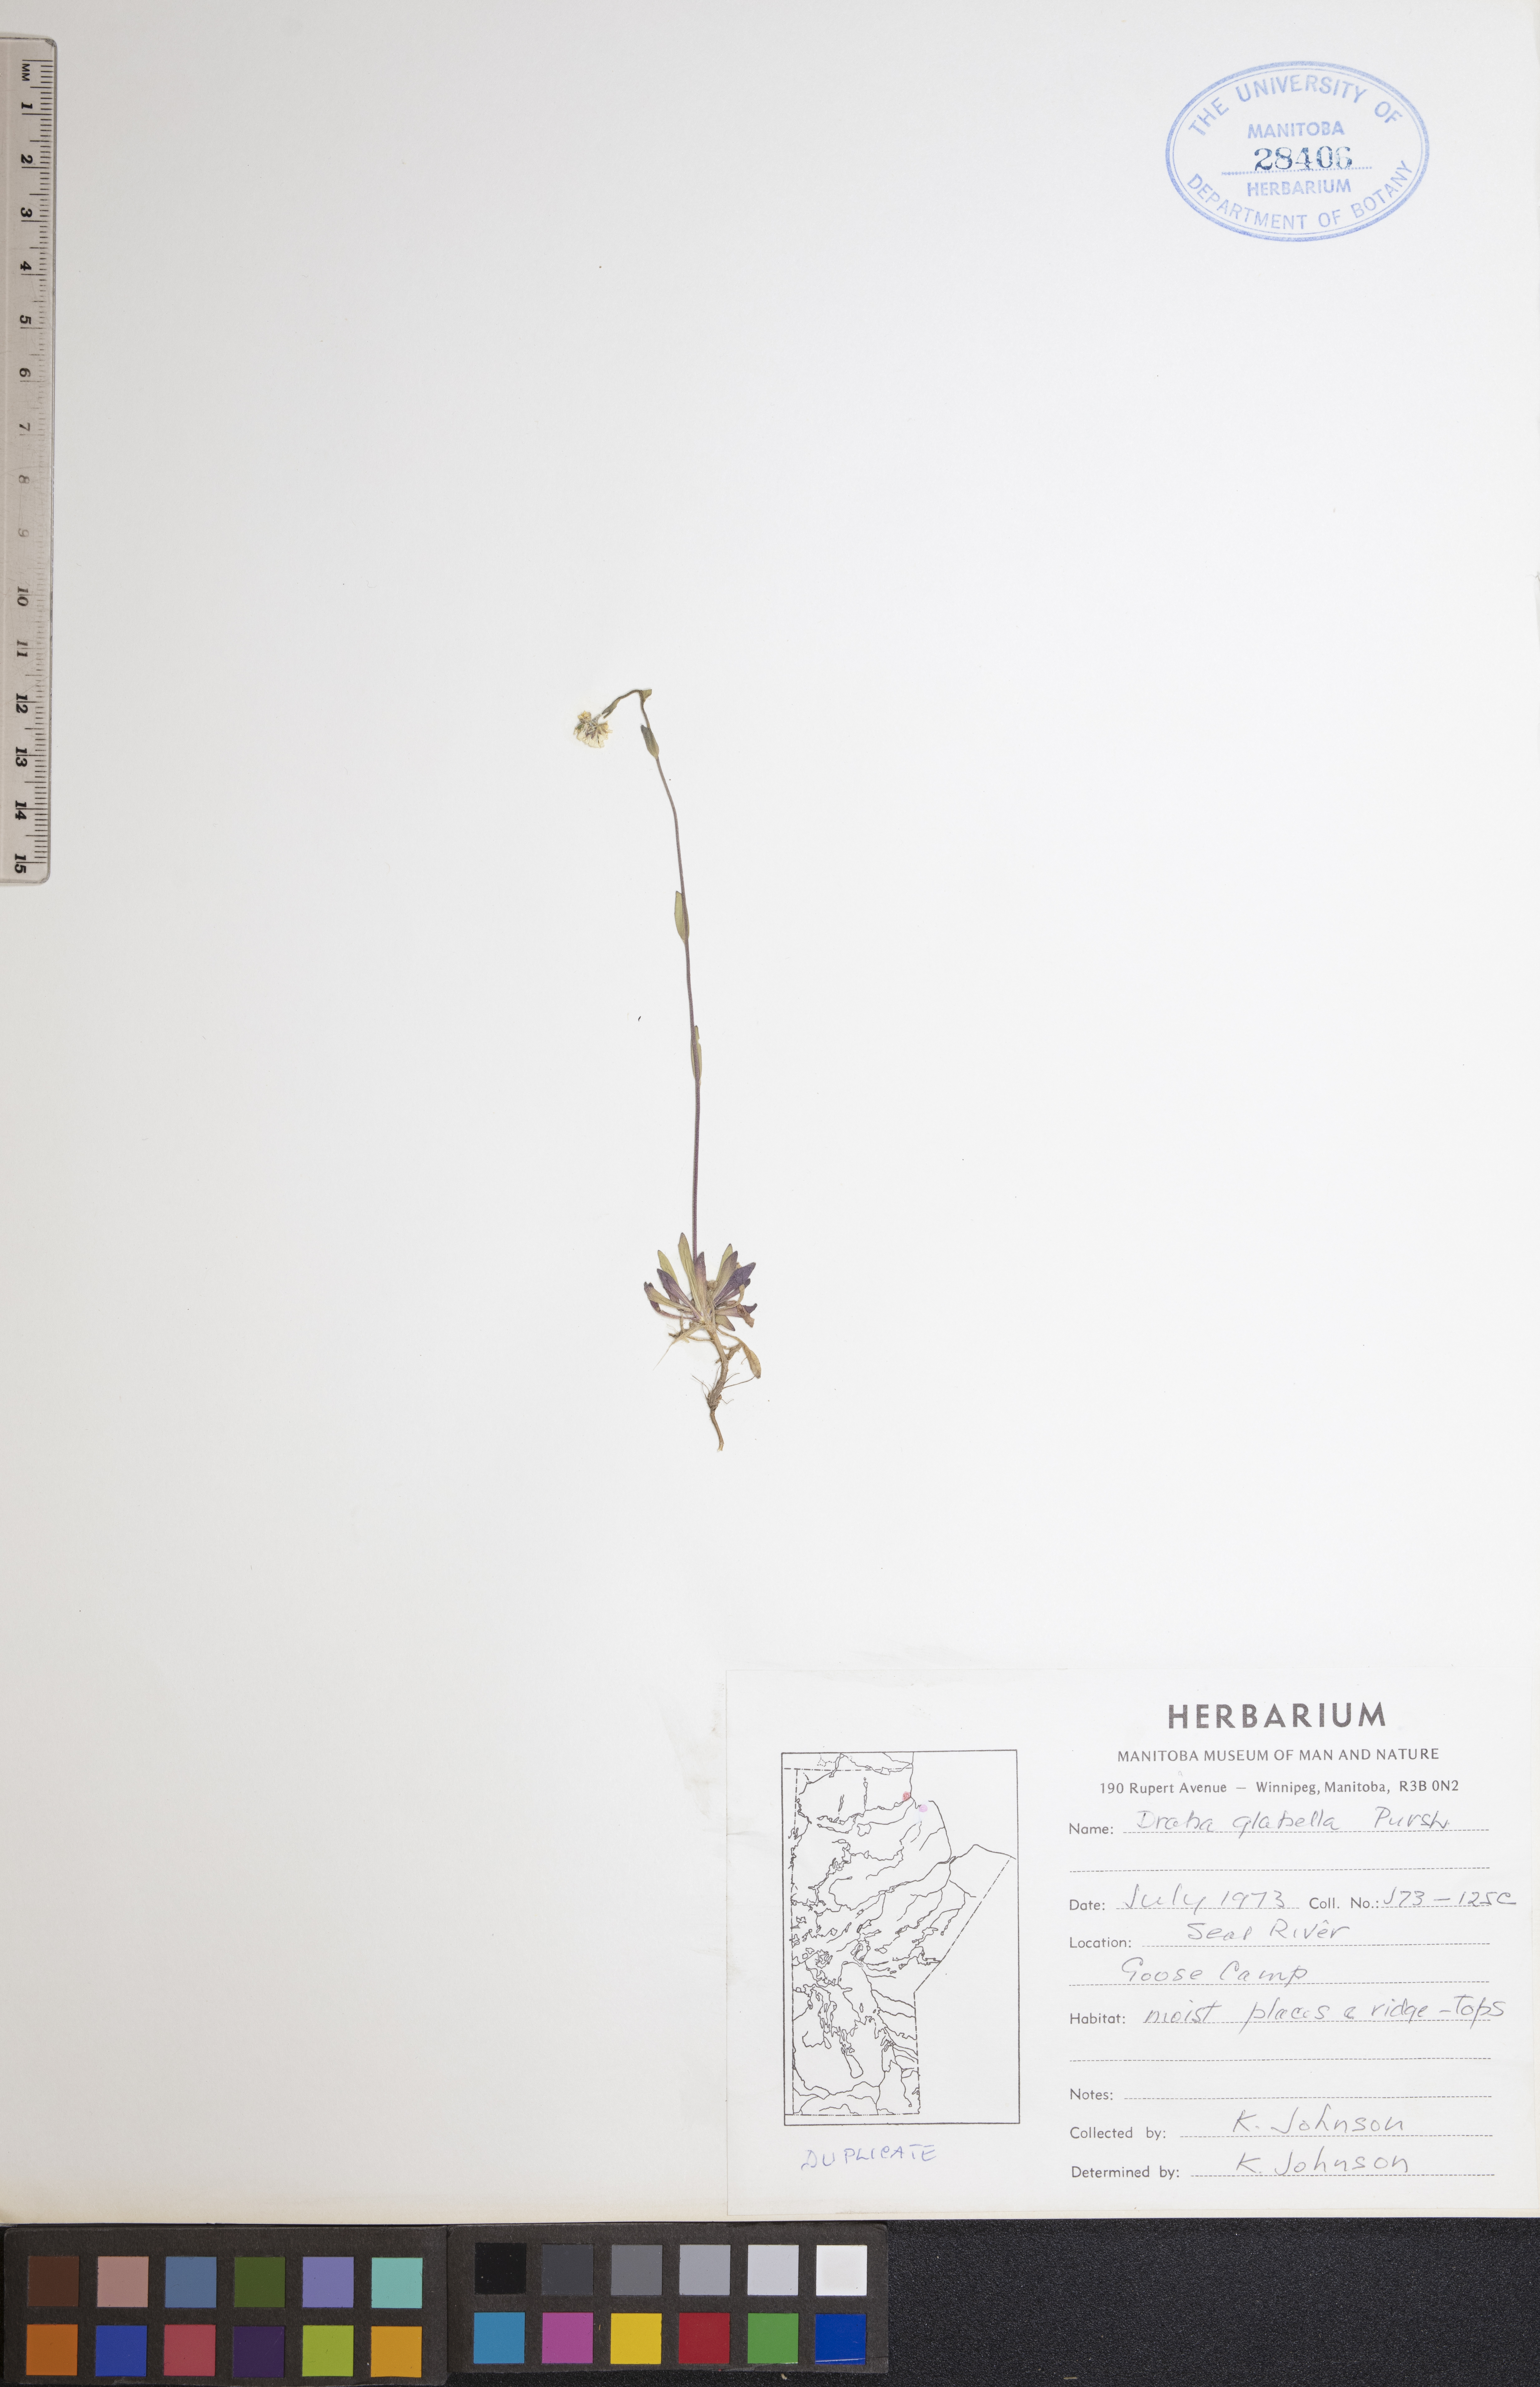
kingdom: Plantae
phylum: Tracheophyta
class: Magnoliopsida
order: Brassicales
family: Brassicaceae
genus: Draba
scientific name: Draba glabella
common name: Glaucous draba
